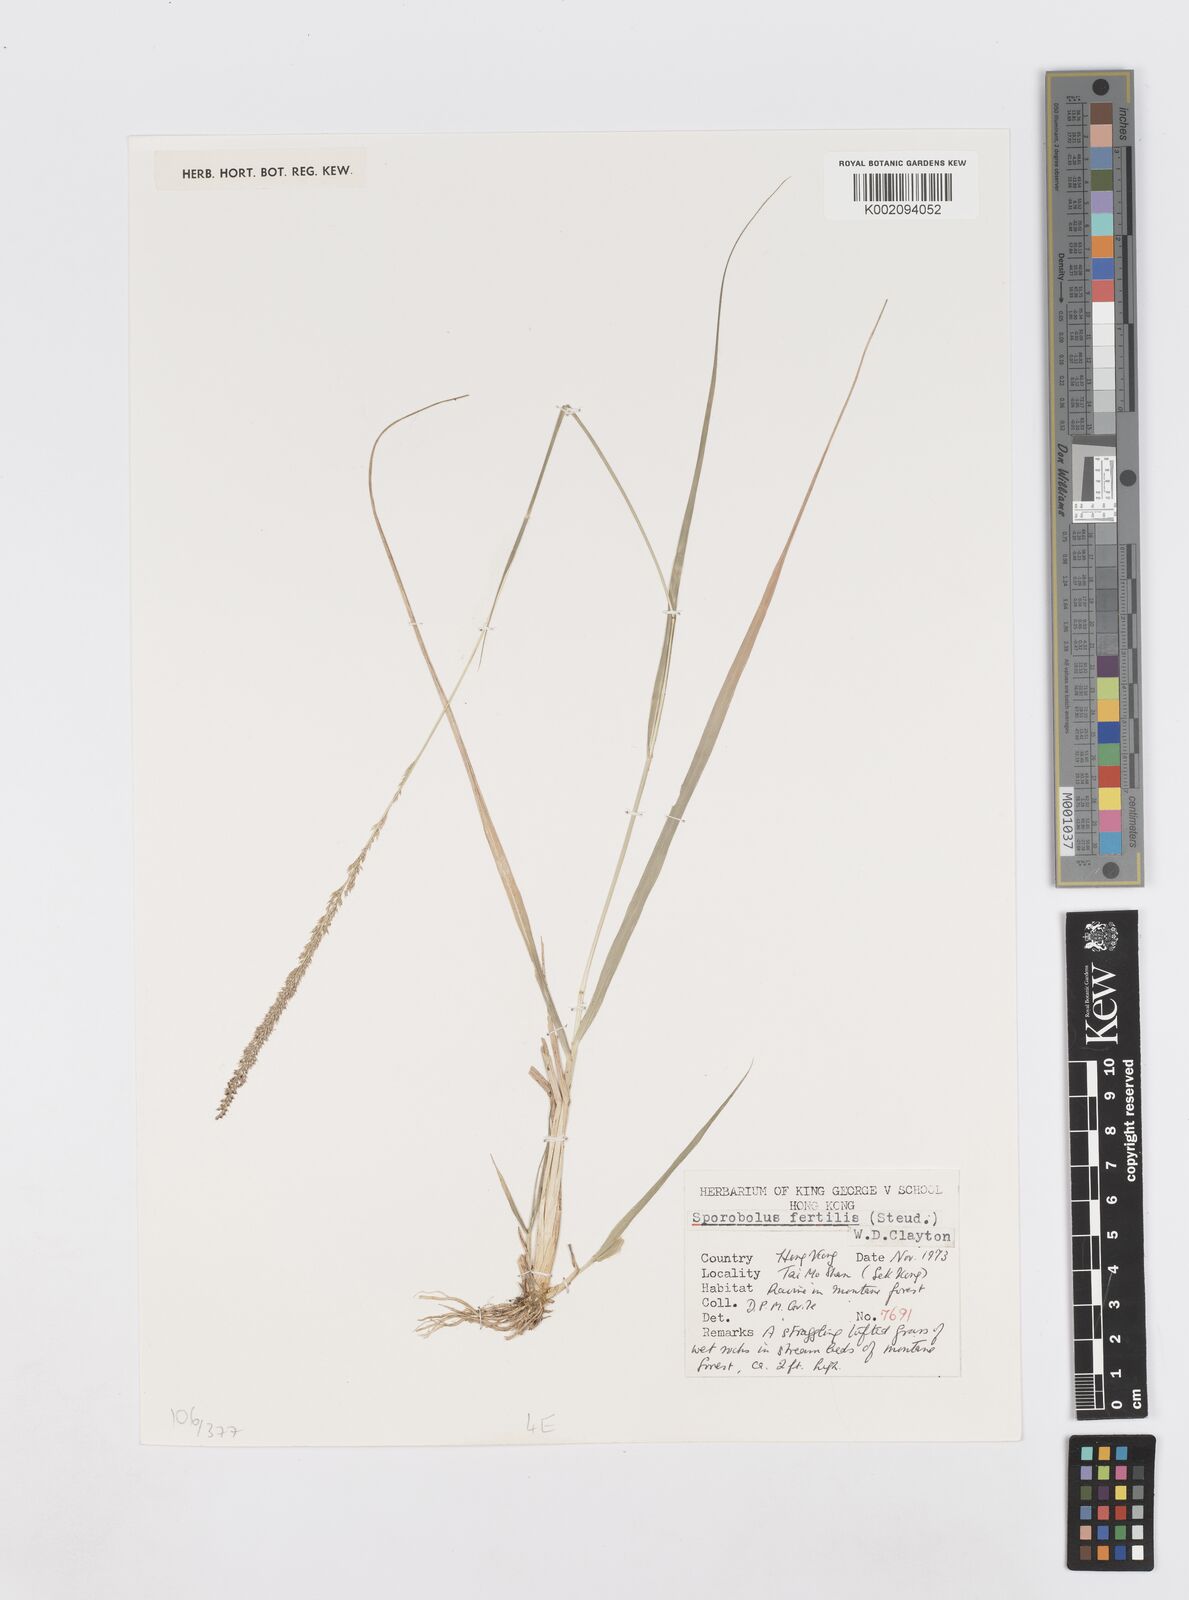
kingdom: Plantae
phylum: Tracheophyta
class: Liliopsida
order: Poales
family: Poaceae
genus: Sporobolus
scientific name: Sporobolus fertilis
